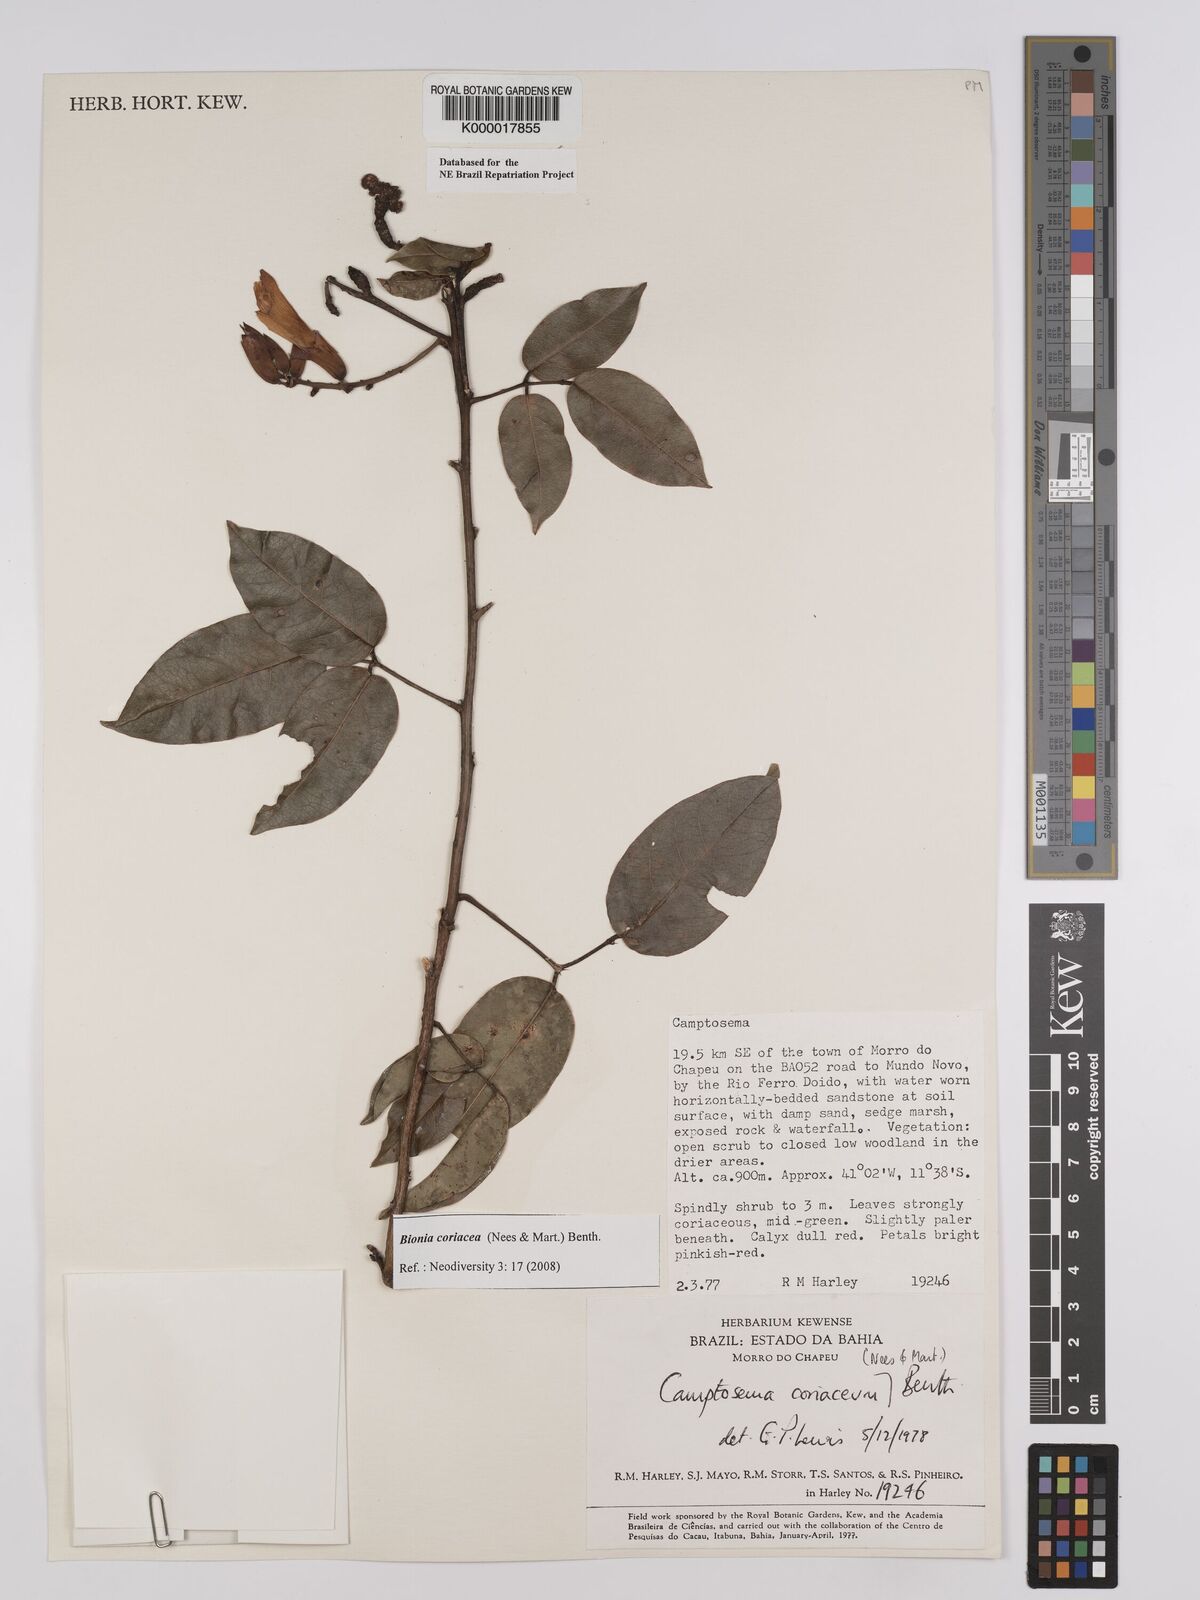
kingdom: Plantae
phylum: Tracheophyta
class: Magnoliopsida
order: Fabales
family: Fabaceae
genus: Camptosema
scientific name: Camptosema coriaceum
